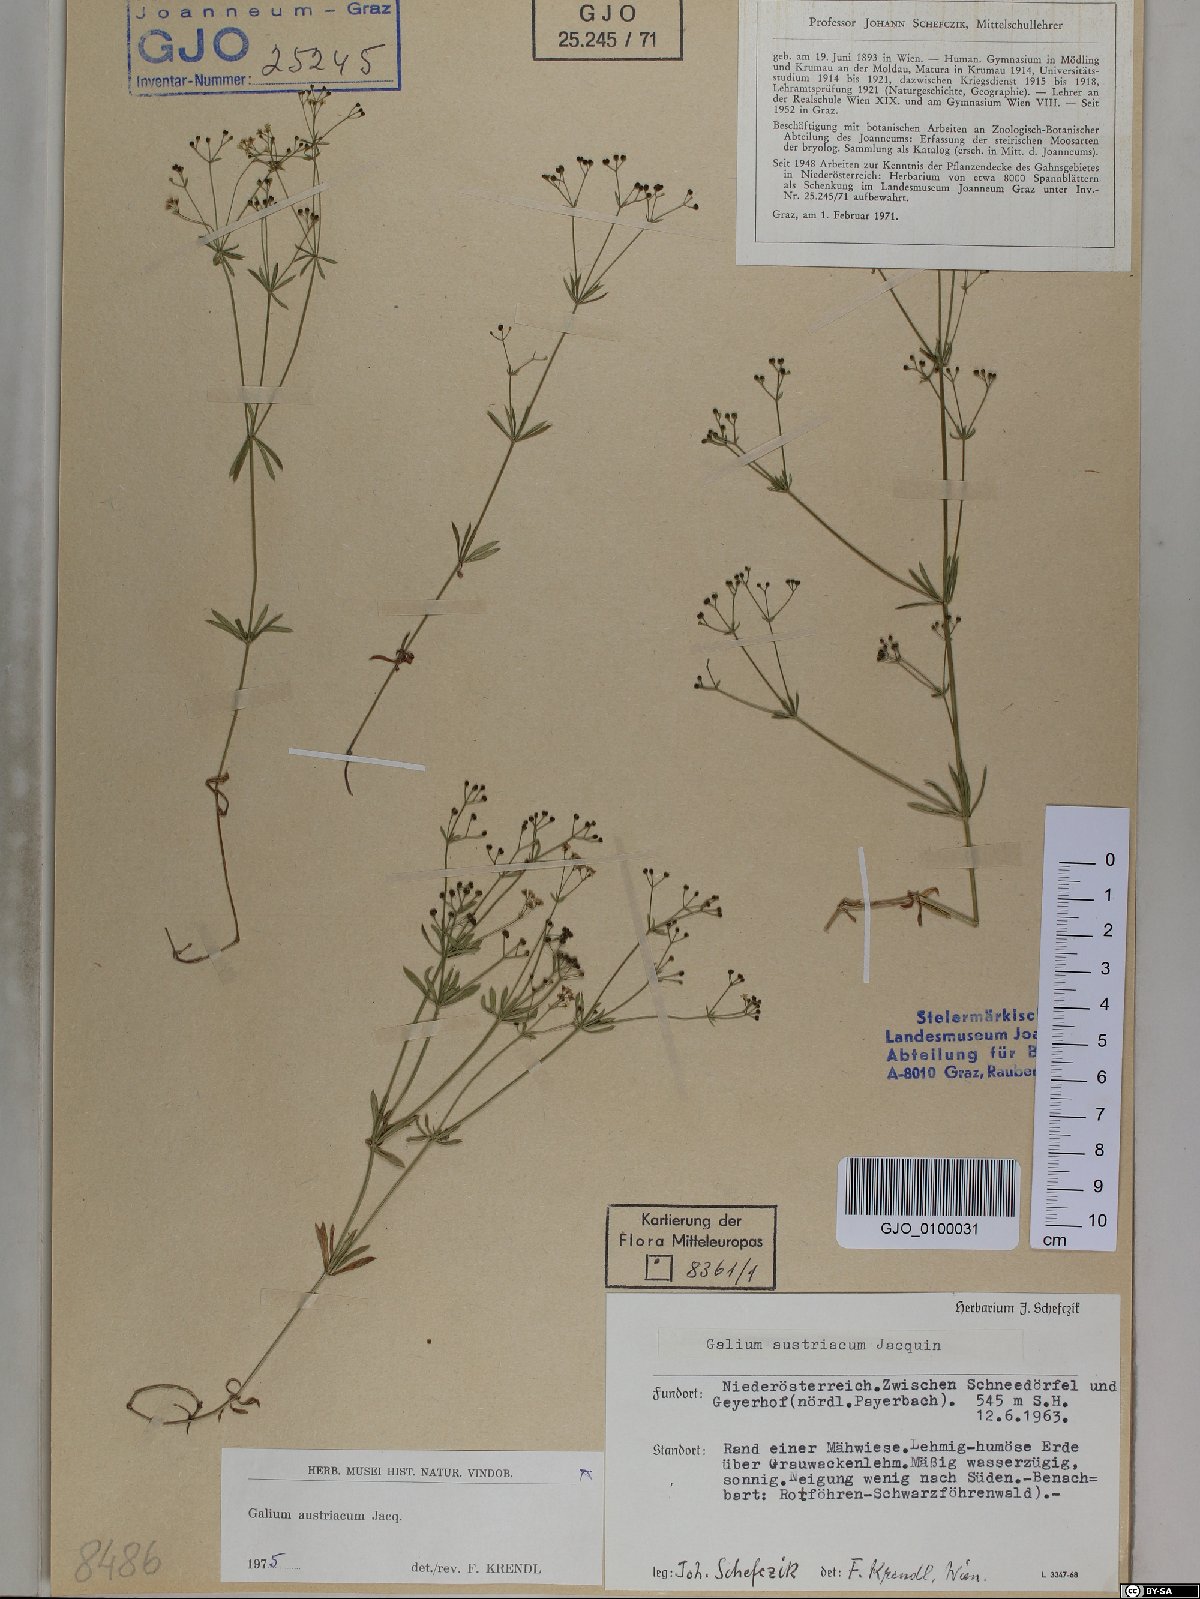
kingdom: Plantae
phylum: Tracheophyta
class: Magnoliopsida
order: Gentianales
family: Rubiaceae
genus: Galium
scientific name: Galium austriacum
